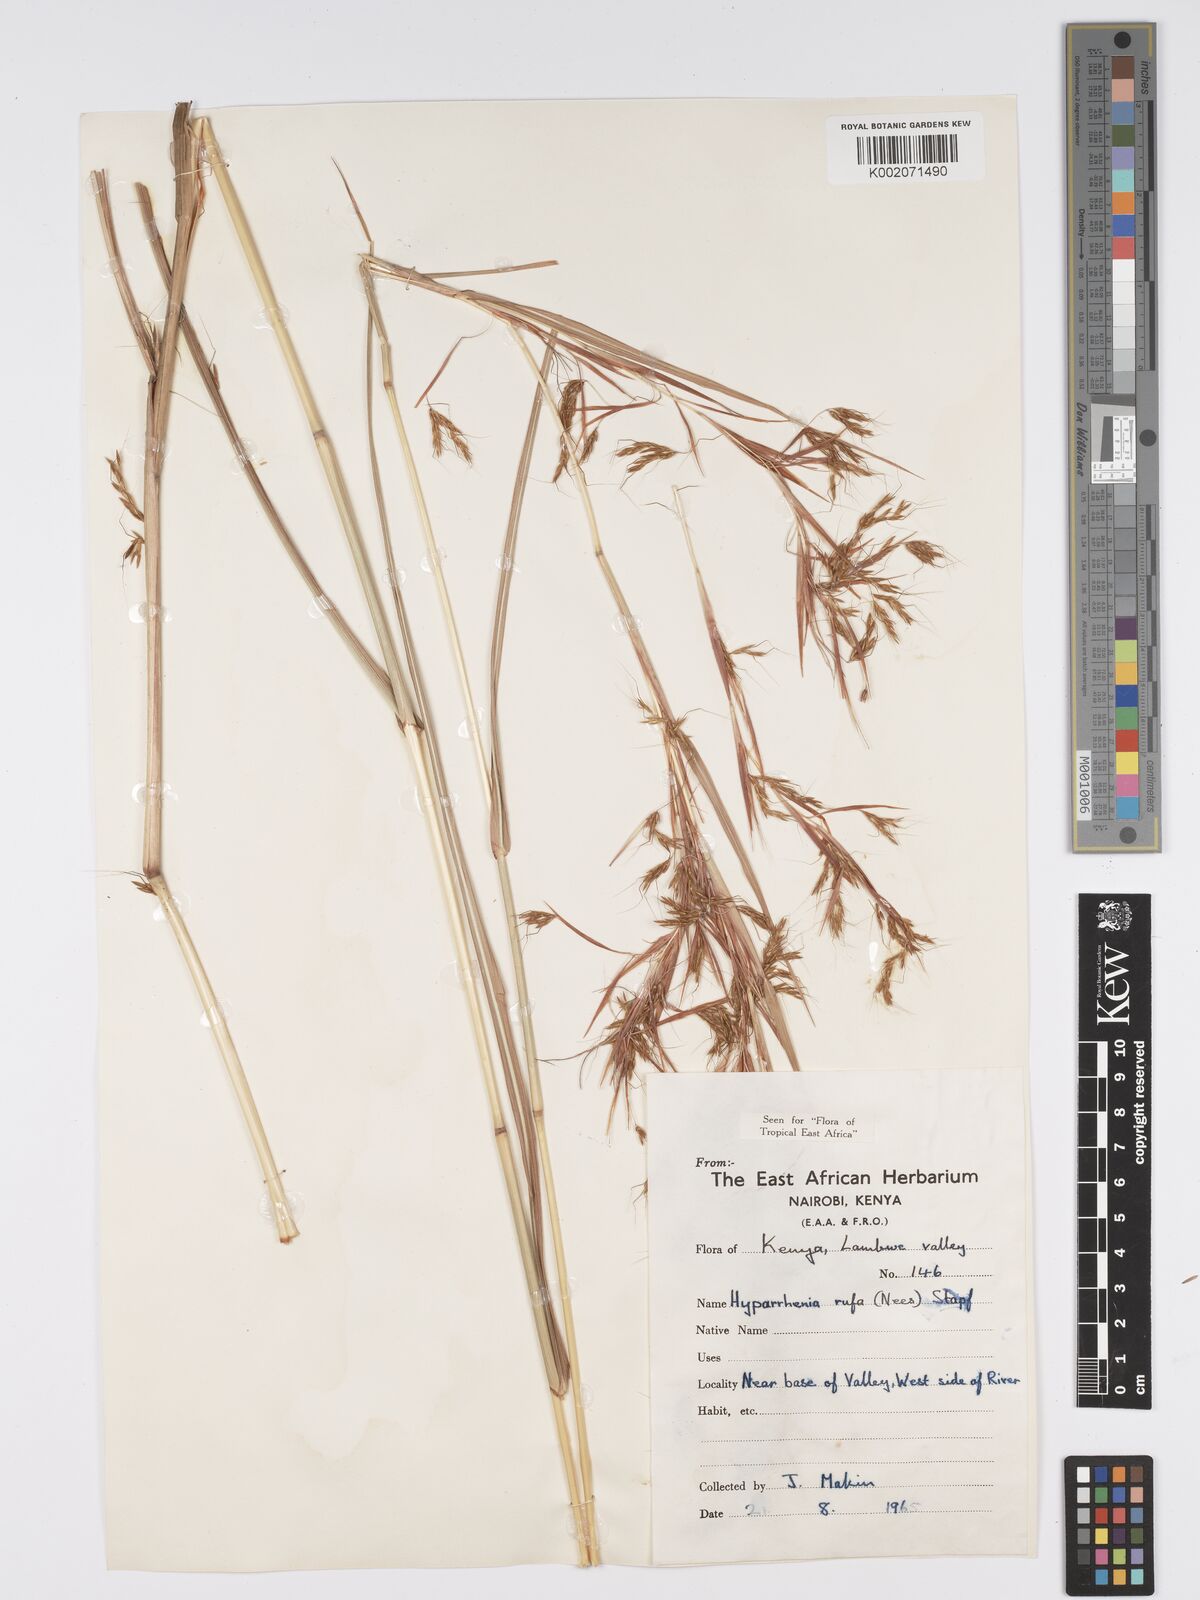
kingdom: Plantae
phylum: Tracheophyta
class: Liliopsida
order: Poales
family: Poaceae
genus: Hyparrhenia
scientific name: Hyparrhenia rufa
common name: Jaraguagrass
